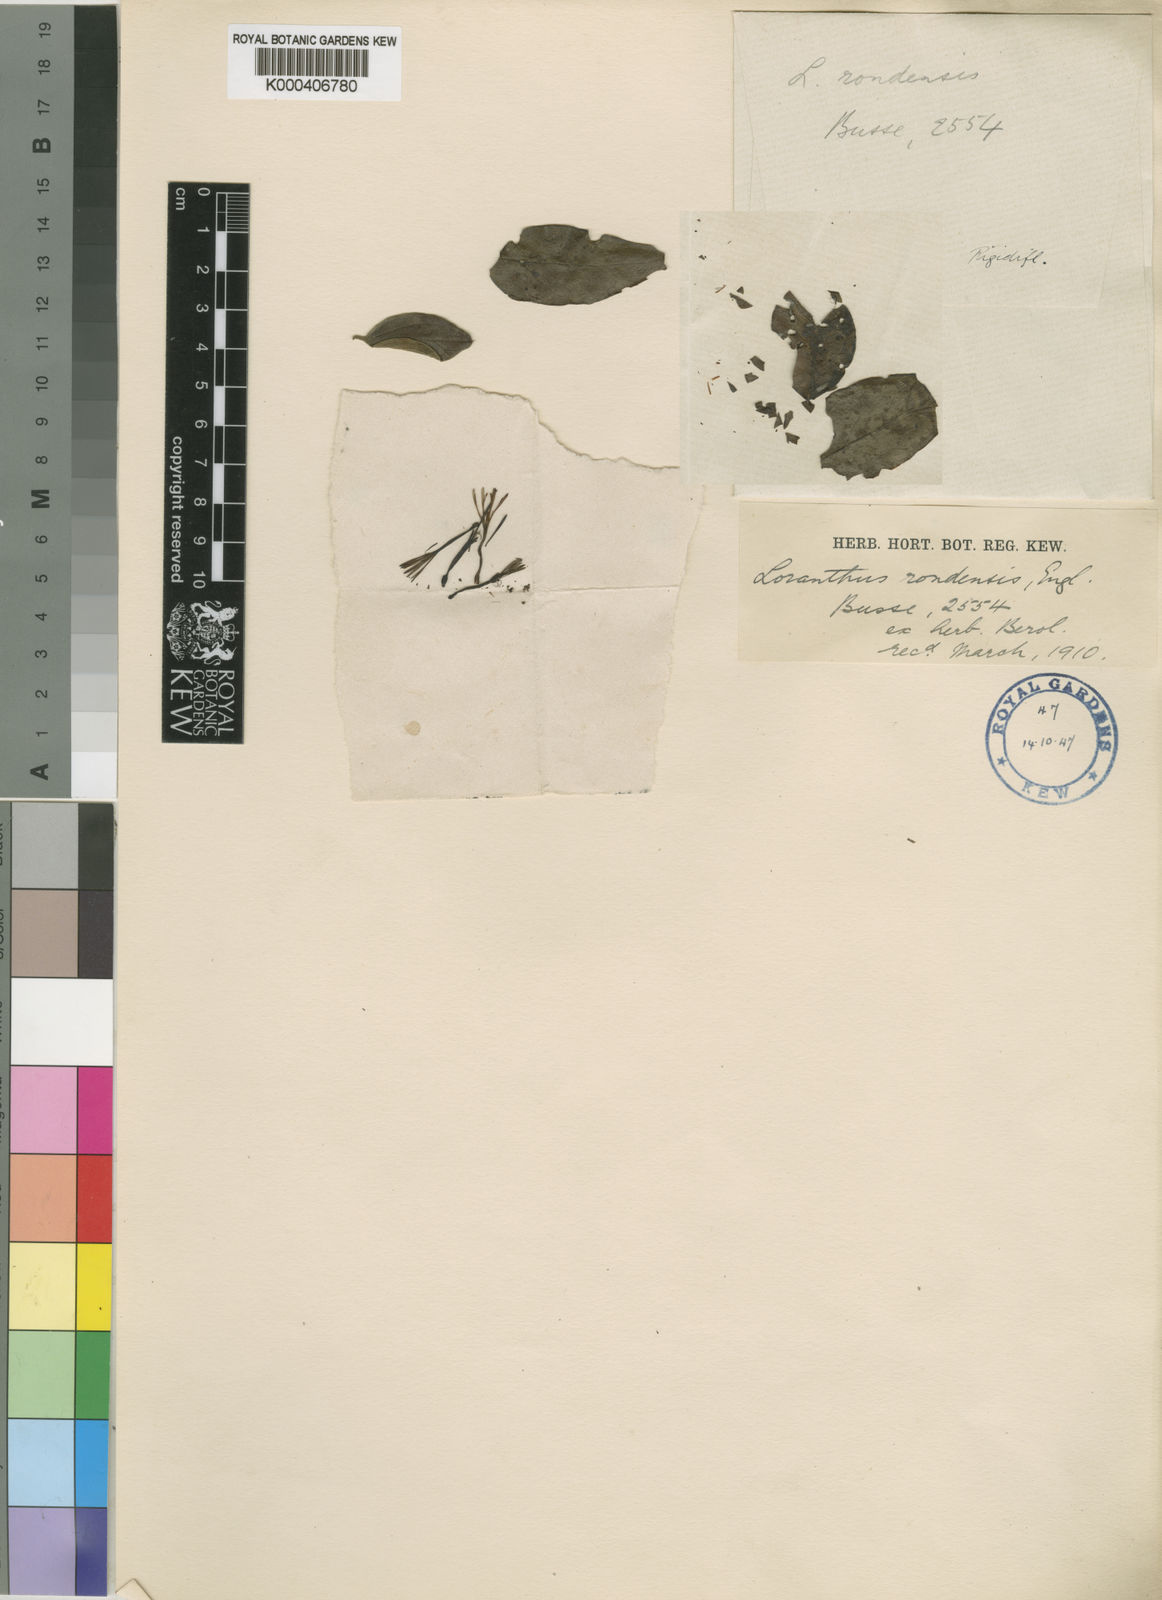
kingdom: Plantae
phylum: Tracheophyta
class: Magnoliopsida
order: Santalales
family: Loranthaceae
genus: Agelanthus
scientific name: Agelanthus rondensis
